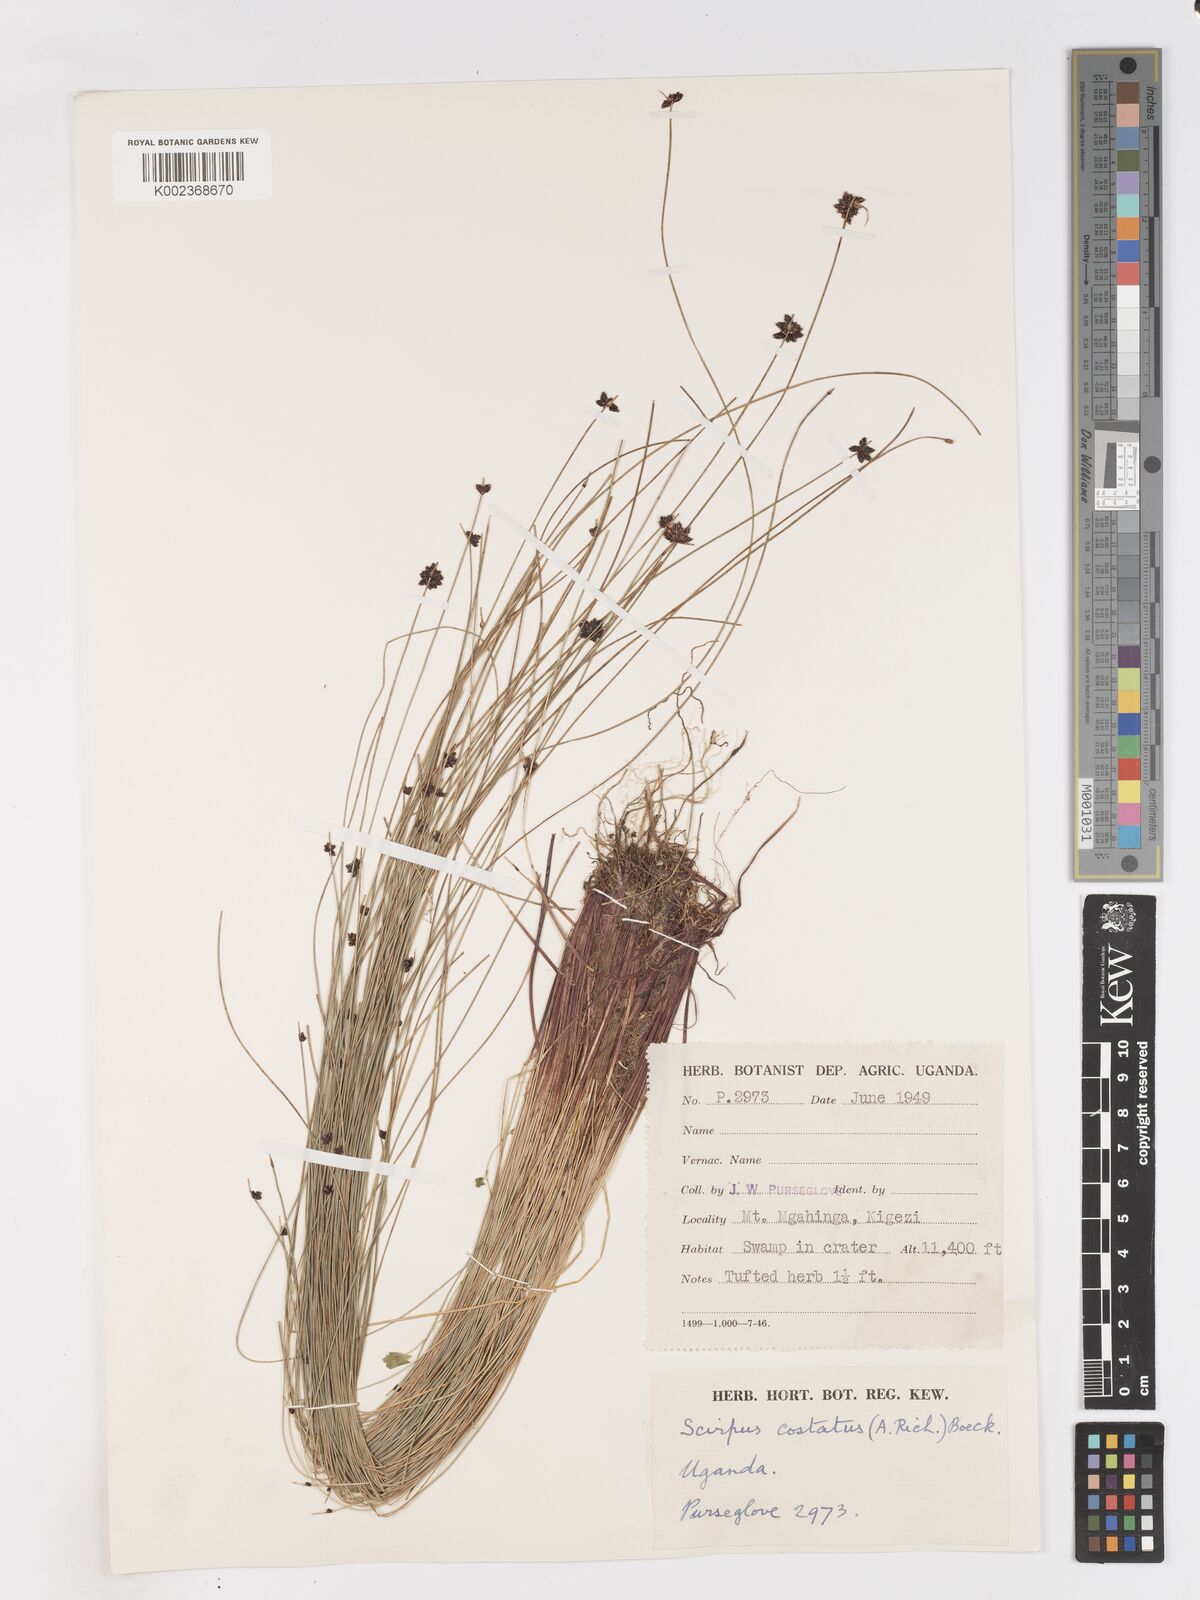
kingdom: Plantae
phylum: Tracheophyta
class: Liliopsida
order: Poales
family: Cyperaceae
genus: Isolepis
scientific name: Isolepis costata
